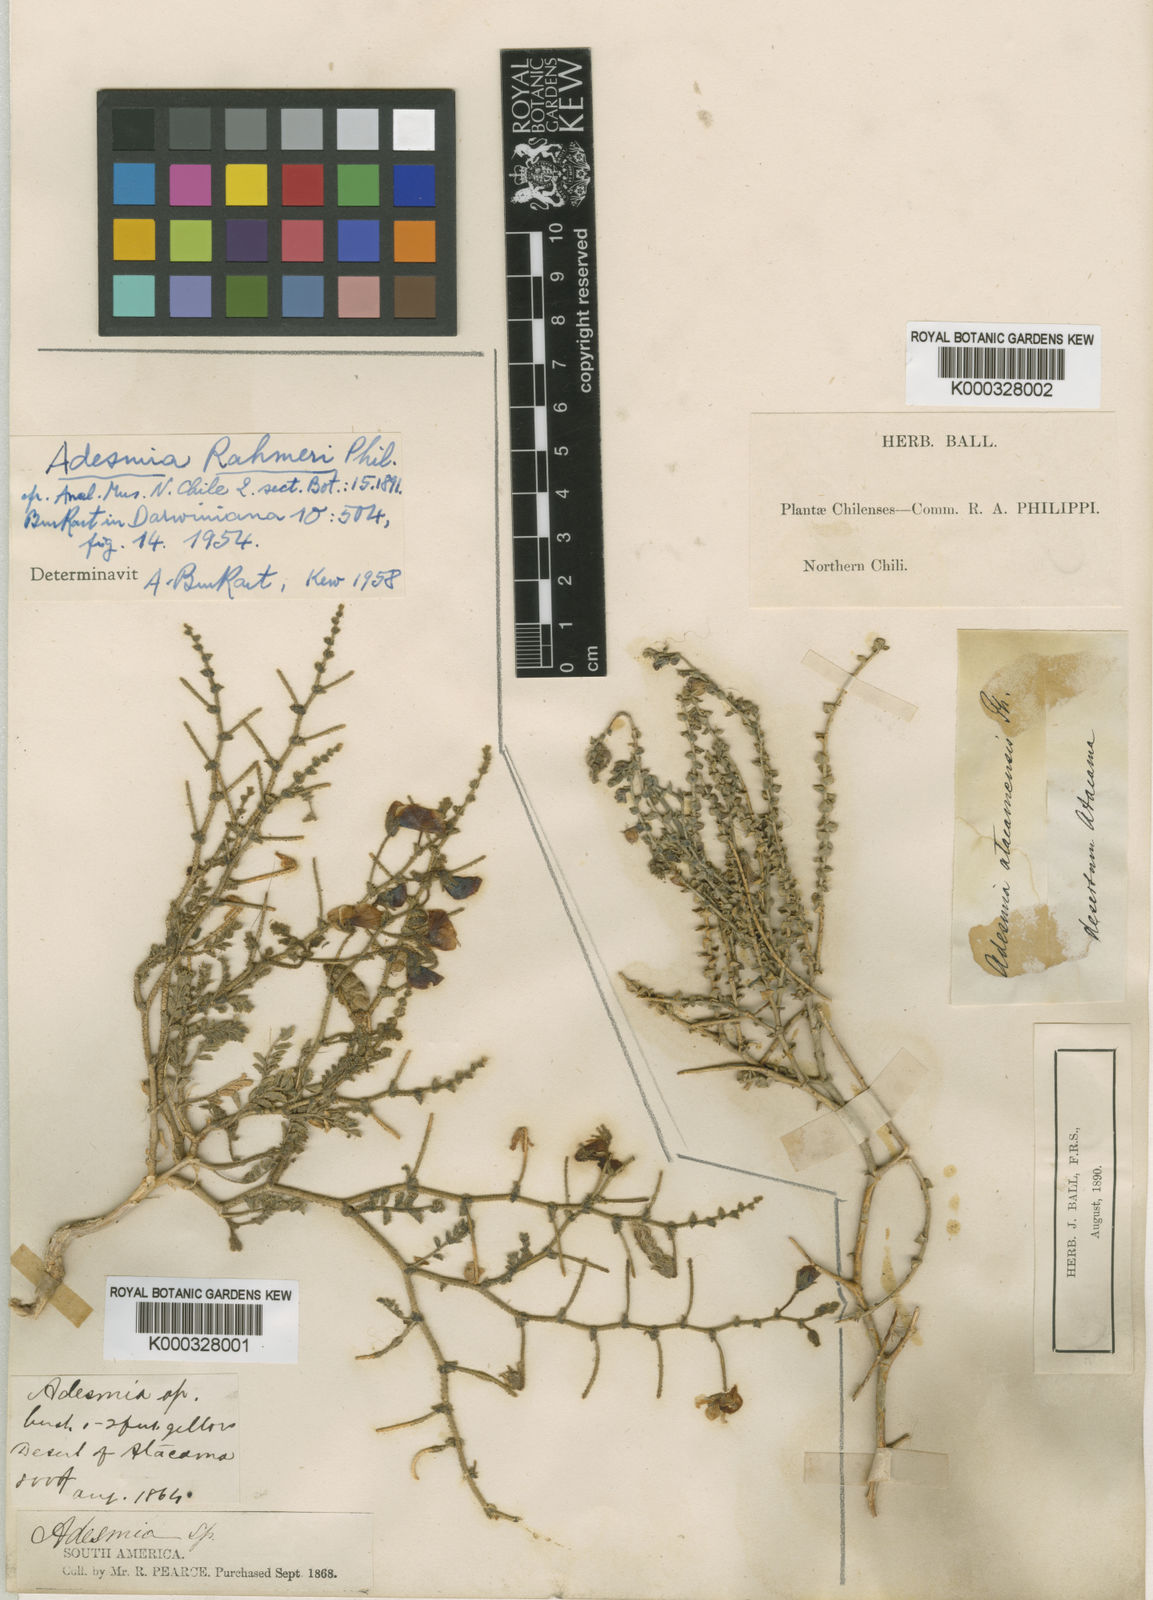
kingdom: Plantae
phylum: Tracheophyta
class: Magnoliopsida
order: Fabales
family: Fabaceae
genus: Adesmia
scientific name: Adesmia atacamensis
